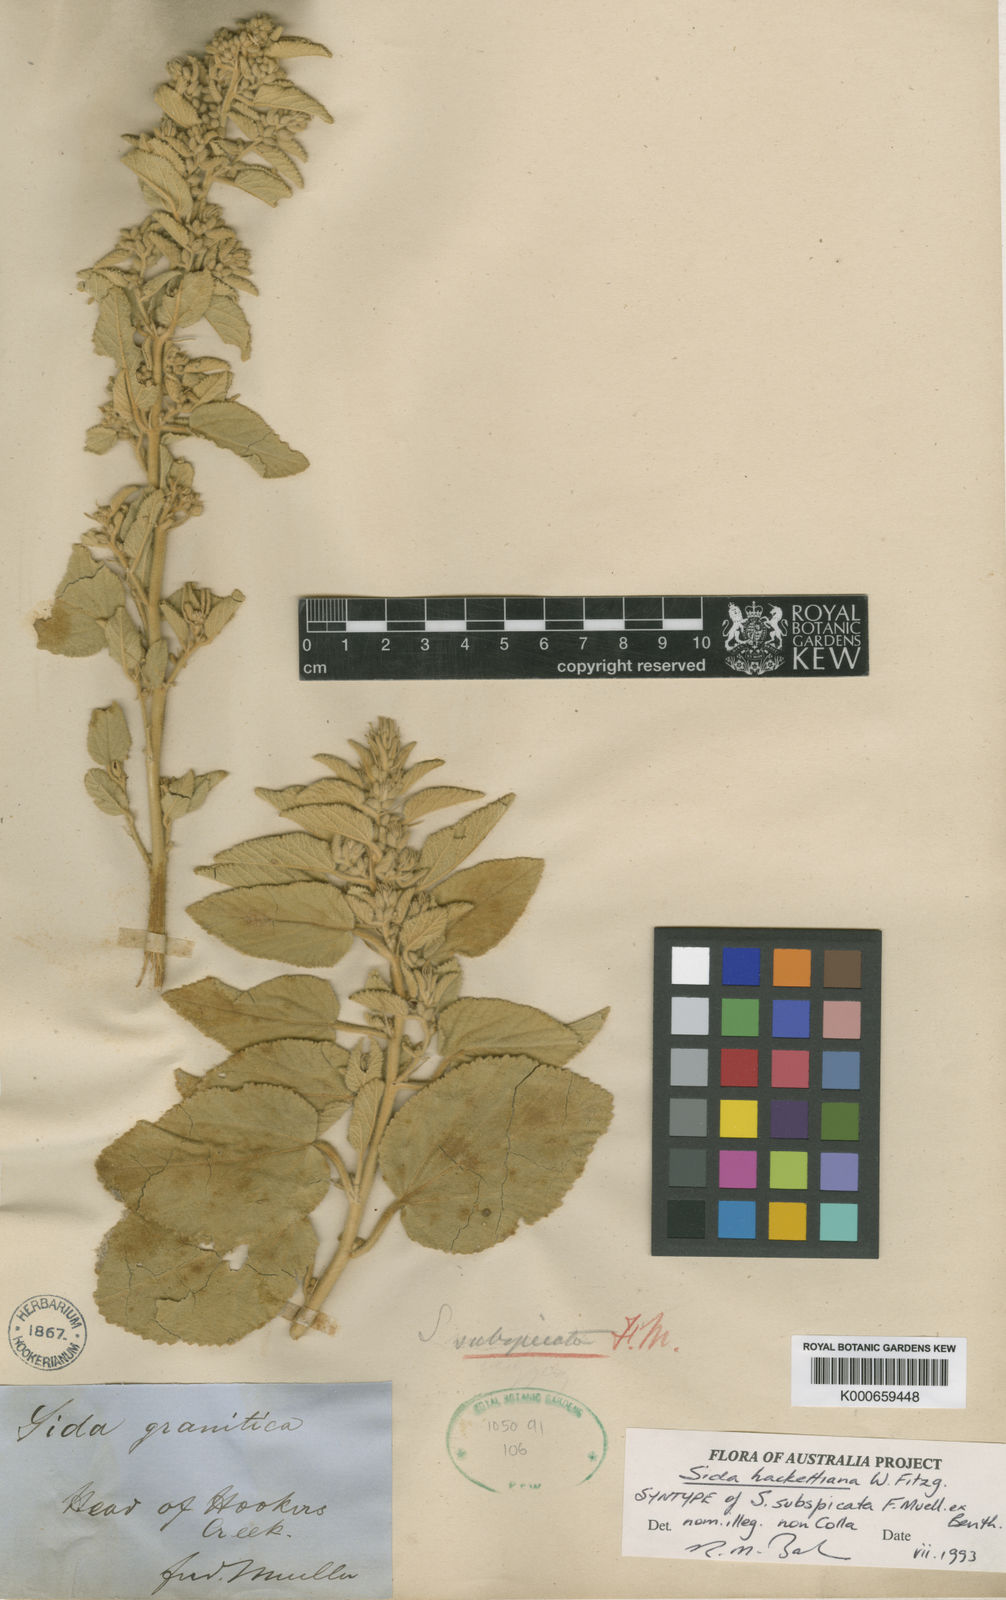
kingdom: Plantae
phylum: Tracheophyta
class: Magnoliopsida
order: Malvales
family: Malvaceae
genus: Sida
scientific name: Sida hackettiana
